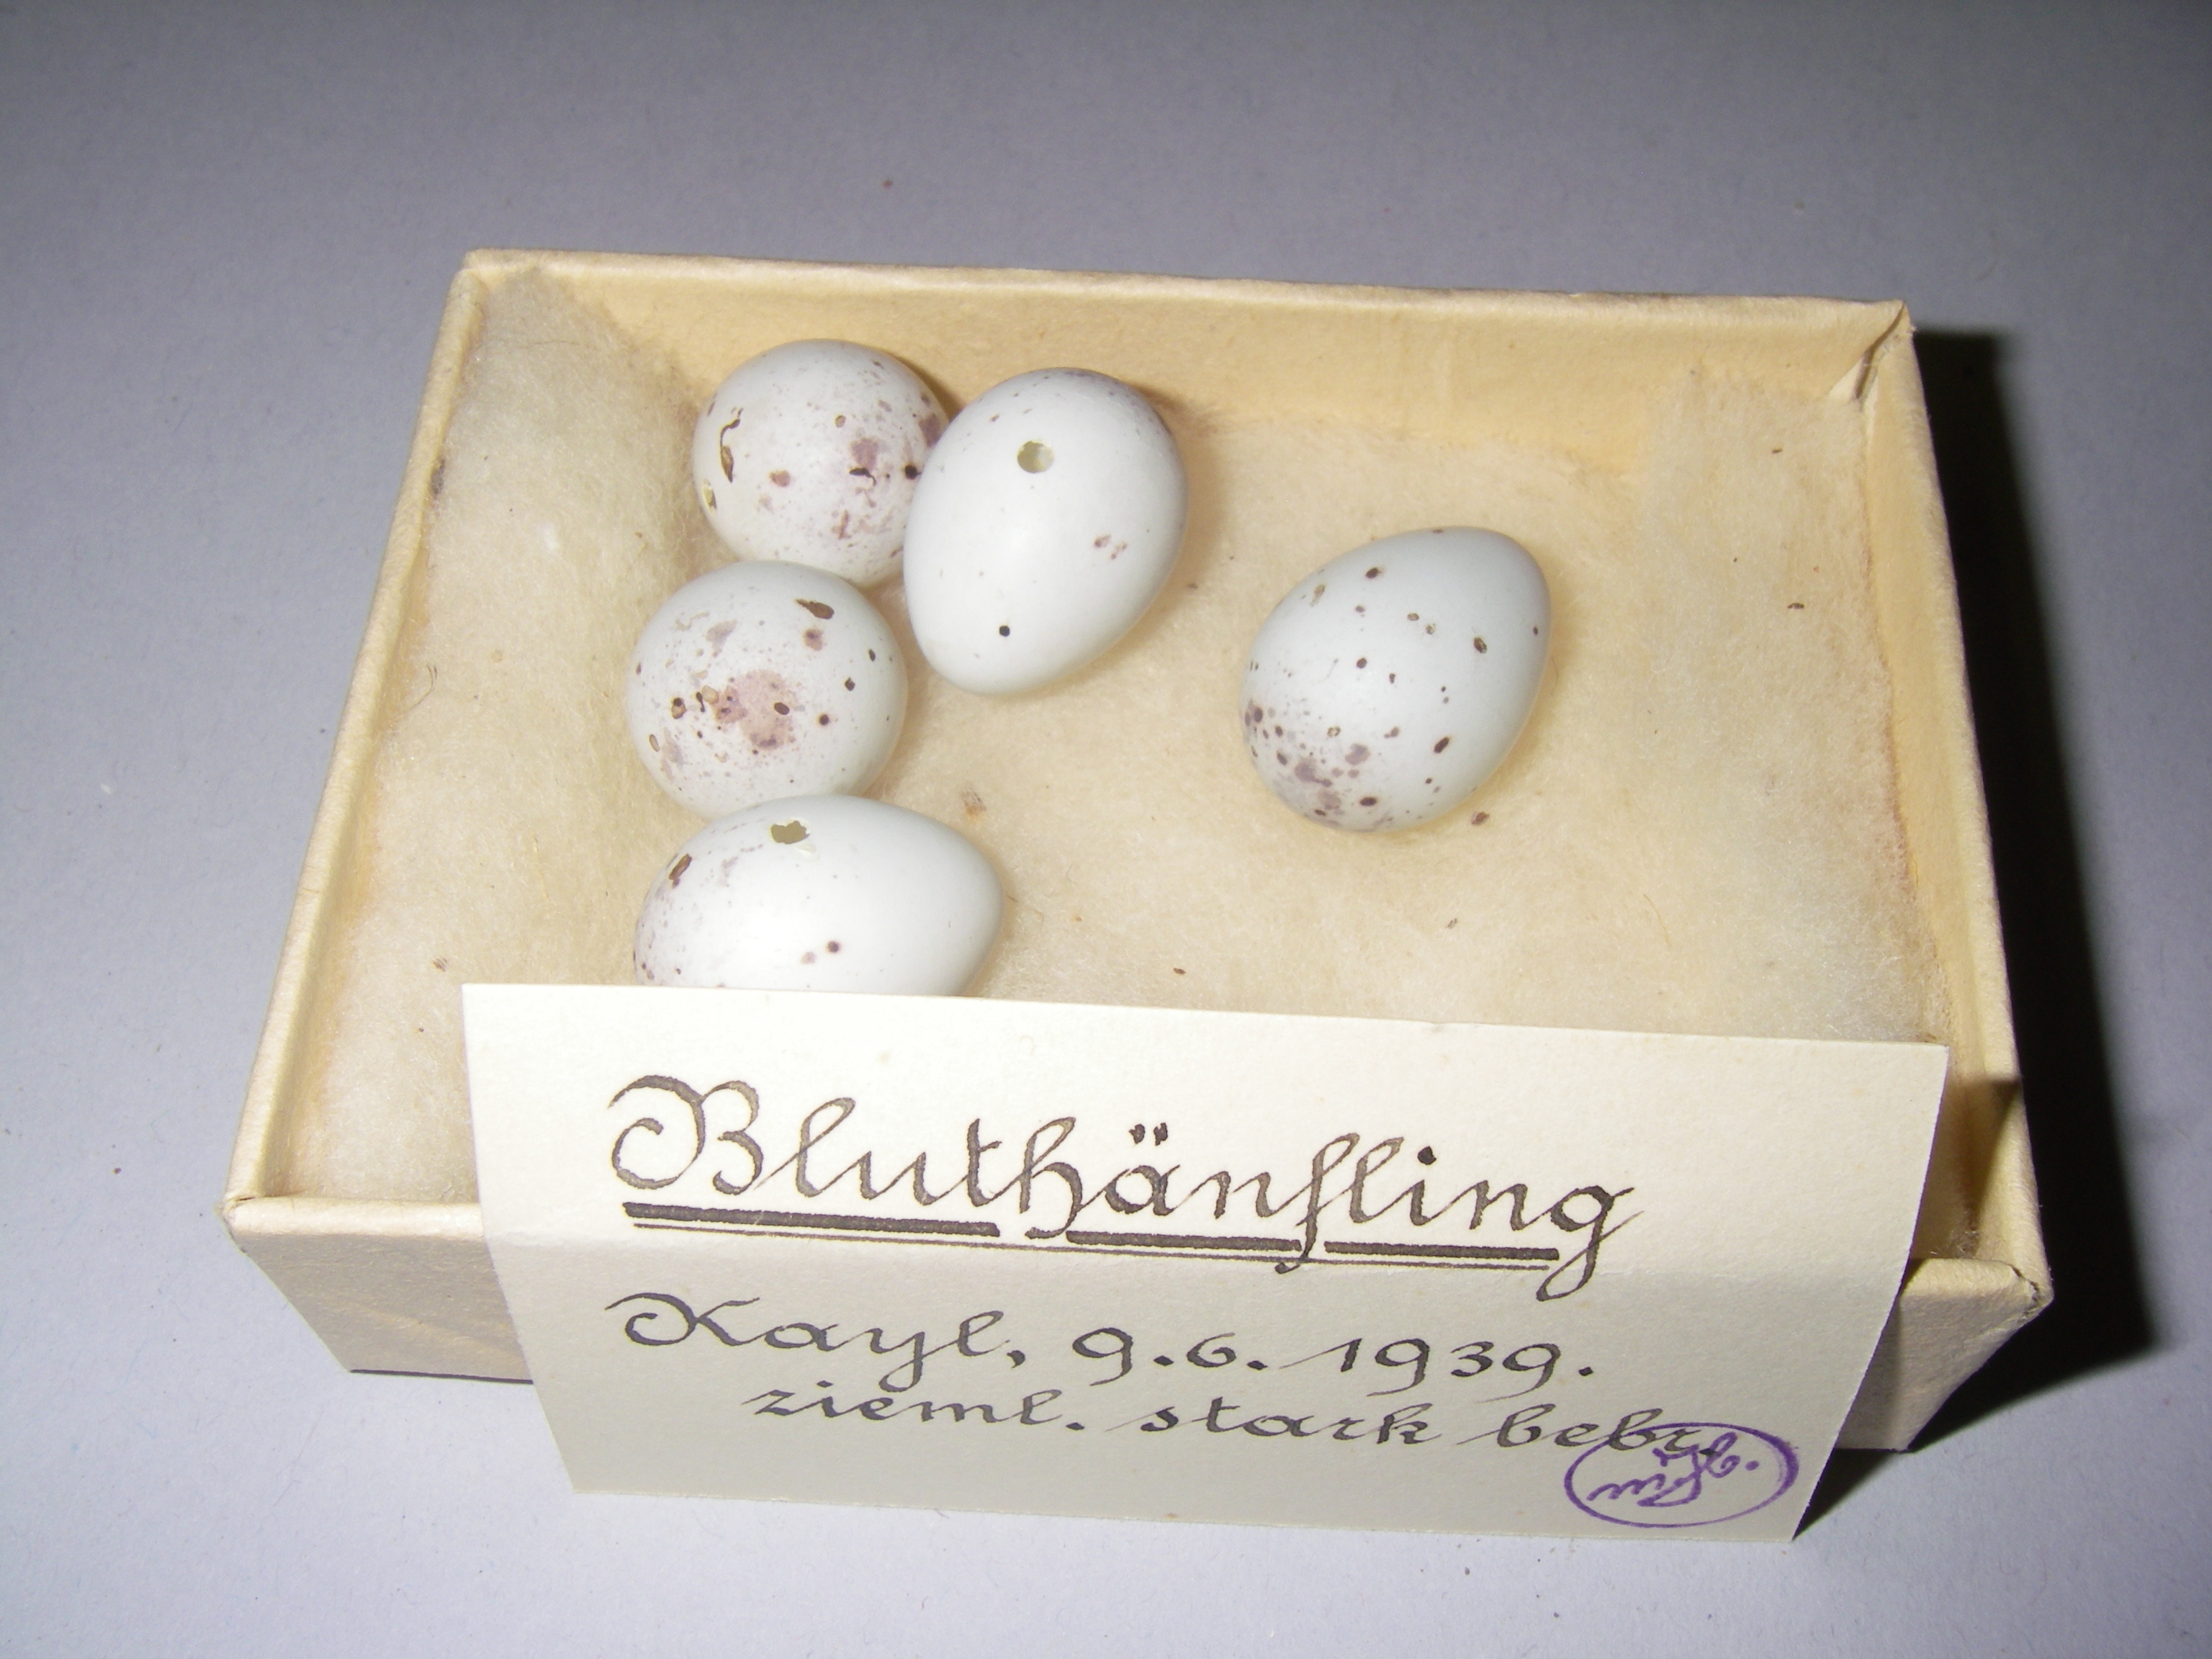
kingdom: Animalia
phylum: Chordata
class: Aves
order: Passeriformes
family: Fringillidae
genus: Linaria
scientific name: Linaria cannabina
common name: Common linnet
